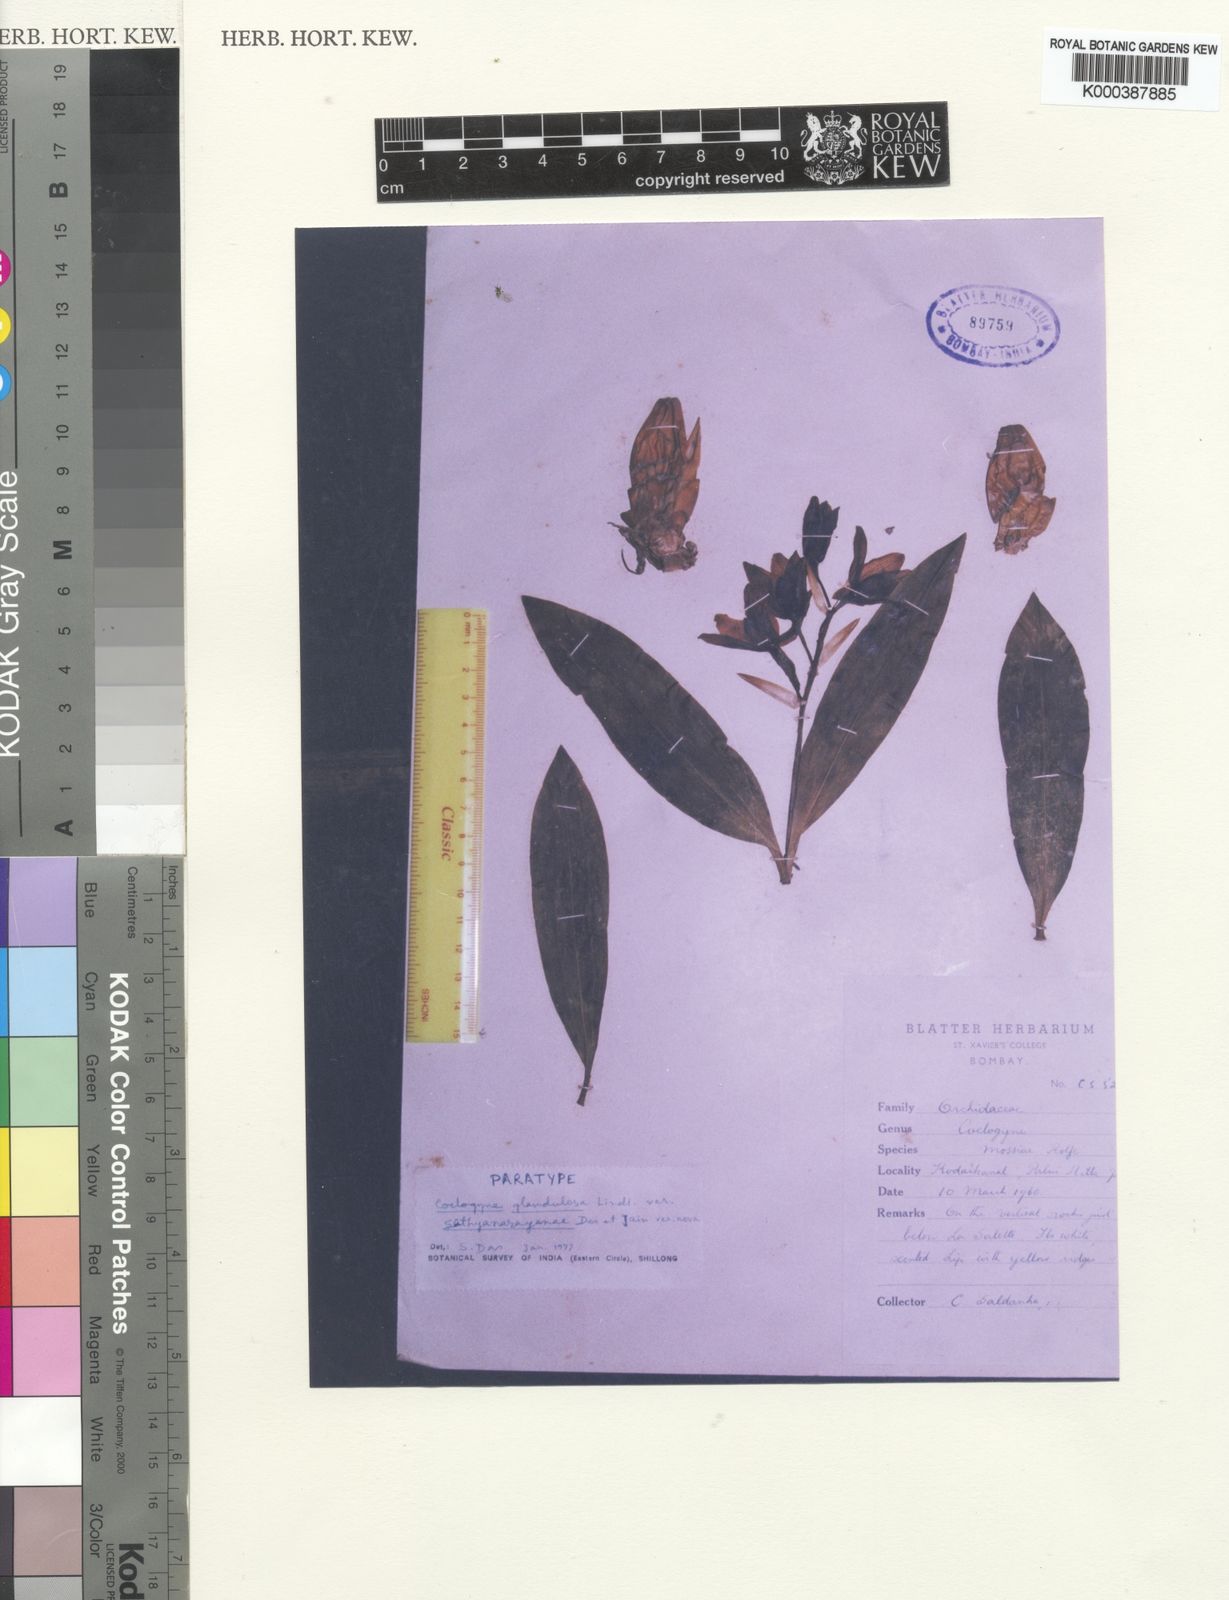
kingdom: Plantae
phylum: Tracheophyta
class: Liliopsida
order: Asparagales
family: Orchidaceae
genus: Coelogyne
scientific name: Coelogyne mossiae
